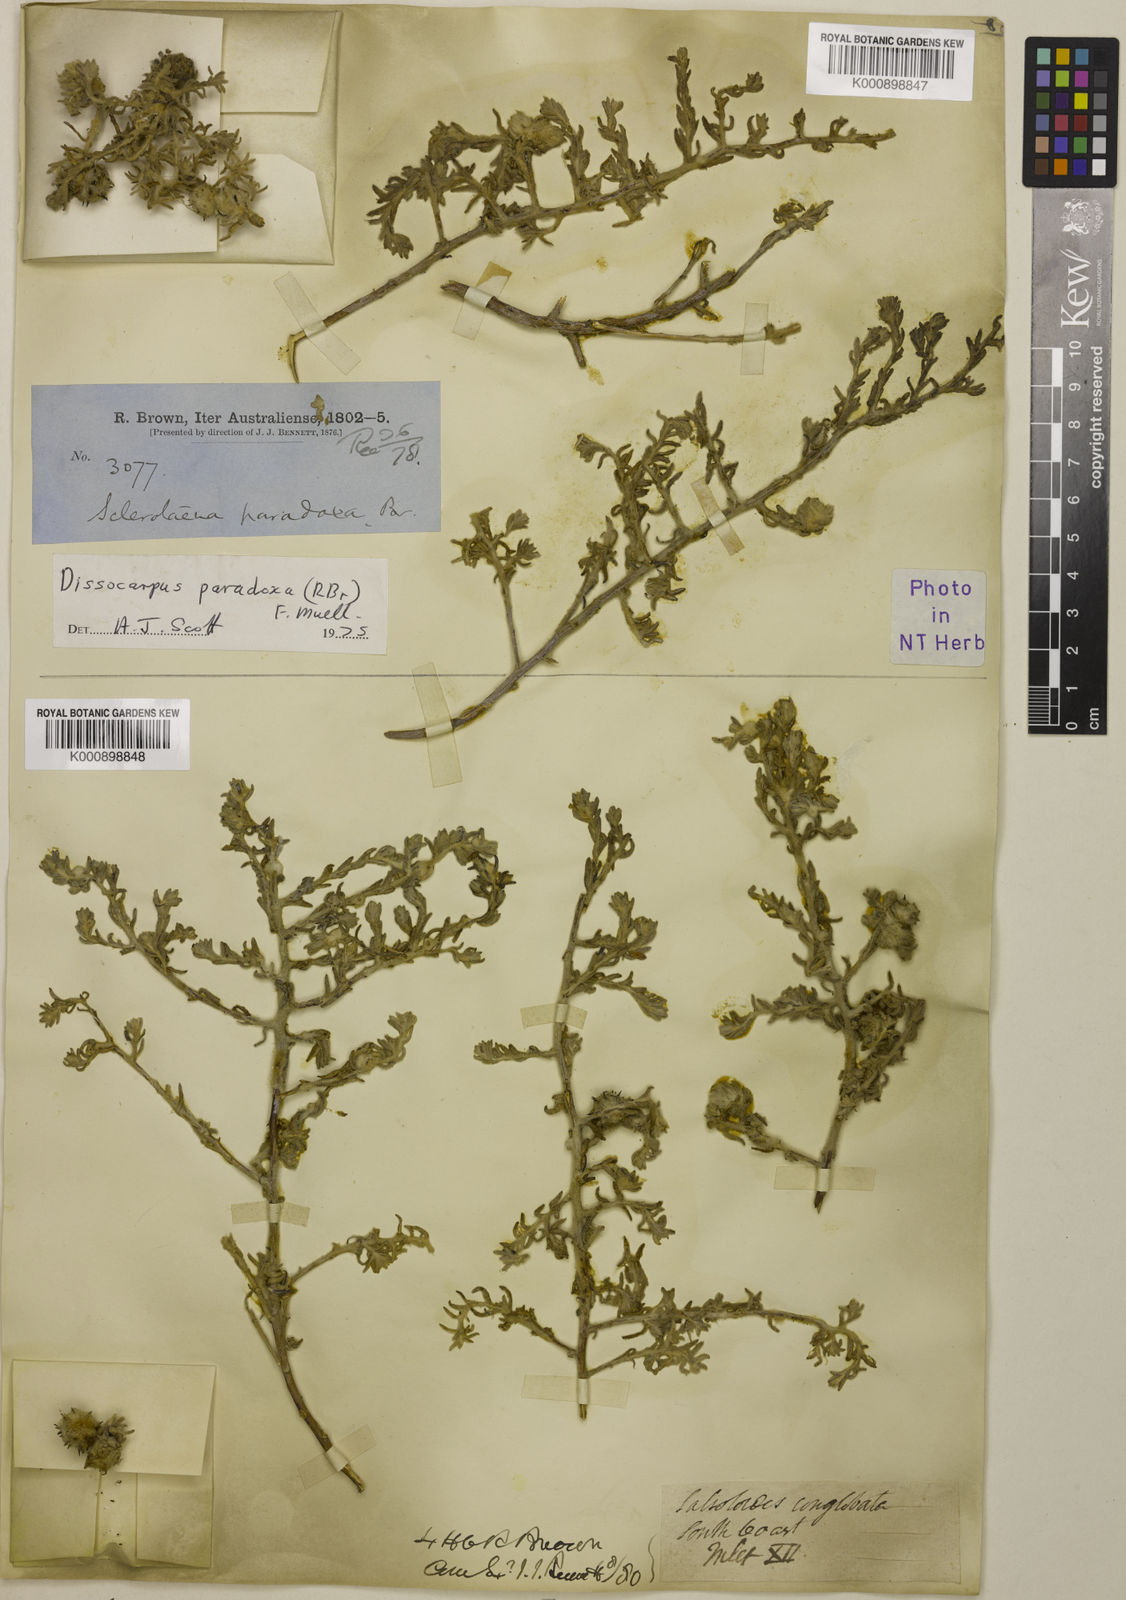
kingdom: Plantae
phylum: Tracheophyta
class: Magnoliopsida
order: Caryophyllales
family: Amaranthaceae
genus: Dissocarpus
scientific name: Dissocarpus paradoxus
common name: Bur-saltbush
